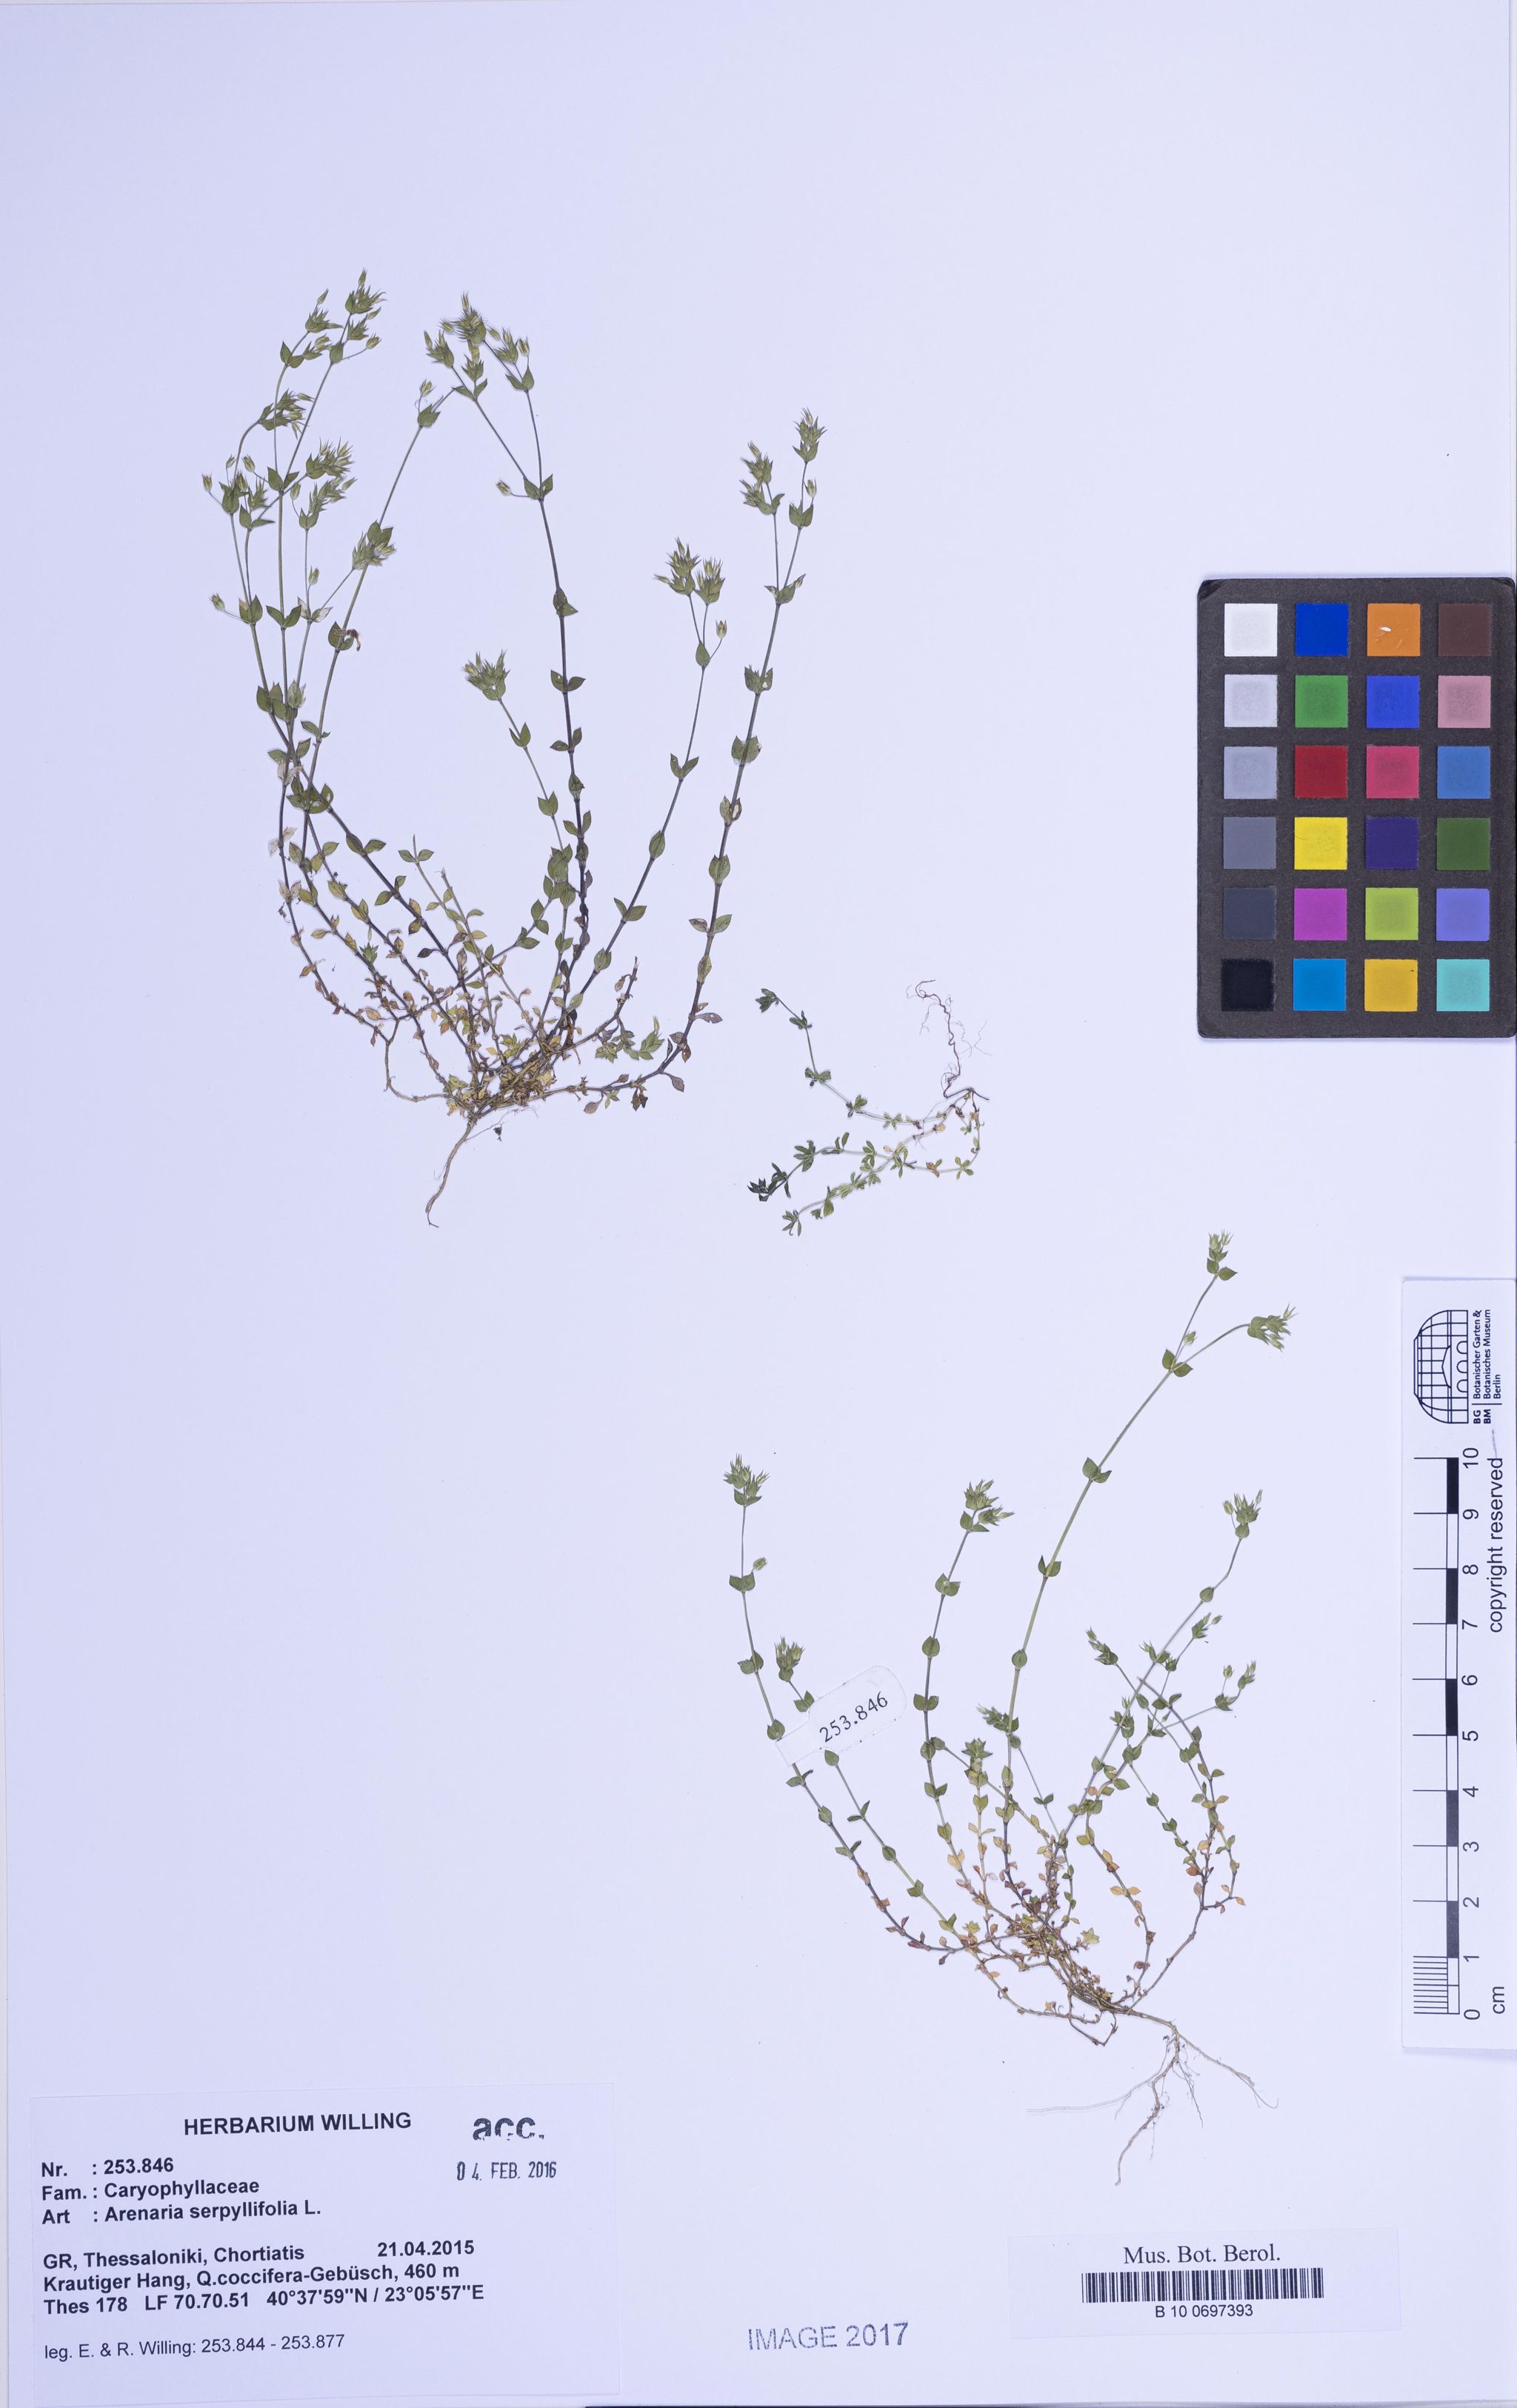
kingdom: Plantae
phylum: Tracheophyta
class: Magnoliopsida
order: Caryophyllales
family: Caryophyllaceae
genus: Arenaria
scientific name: Arenaria serpyllifolia
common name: Thyme-leaved sandwort
